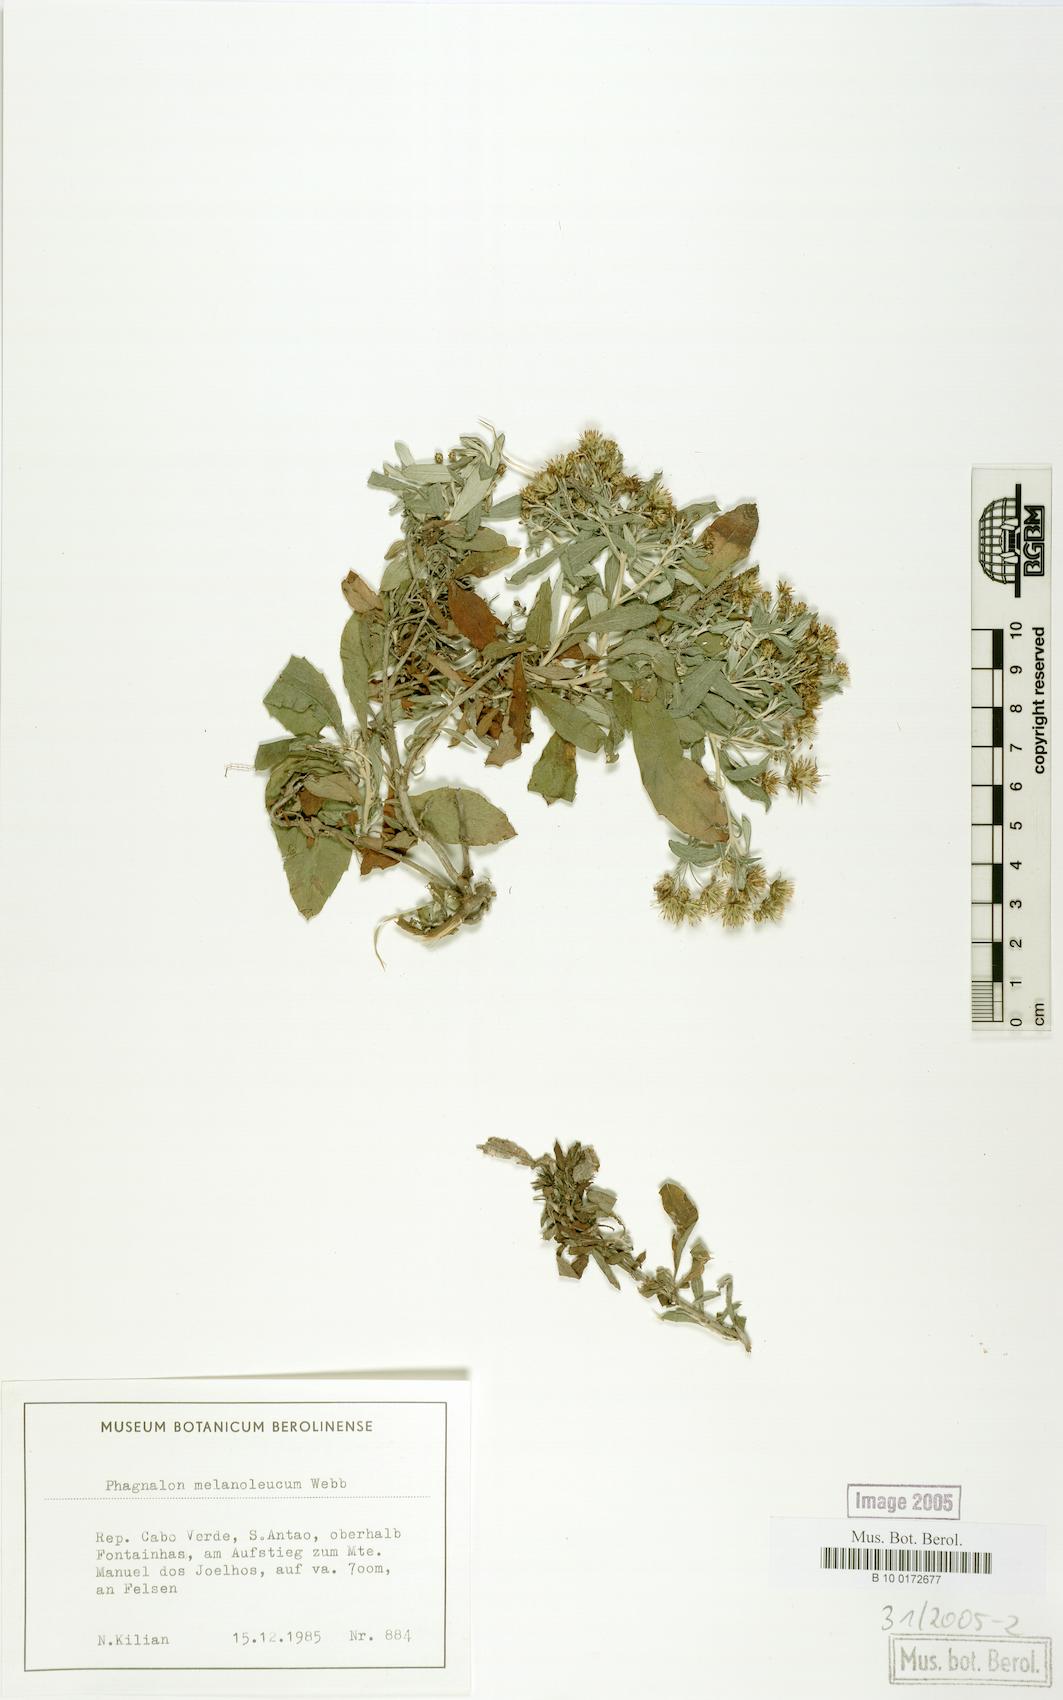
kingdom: Plantae
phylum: Tracheophyta
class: Magnoliopsida
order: Asterales
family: Asteraceae
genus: Phagnalon
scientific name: Phagnalon melanoleucum
